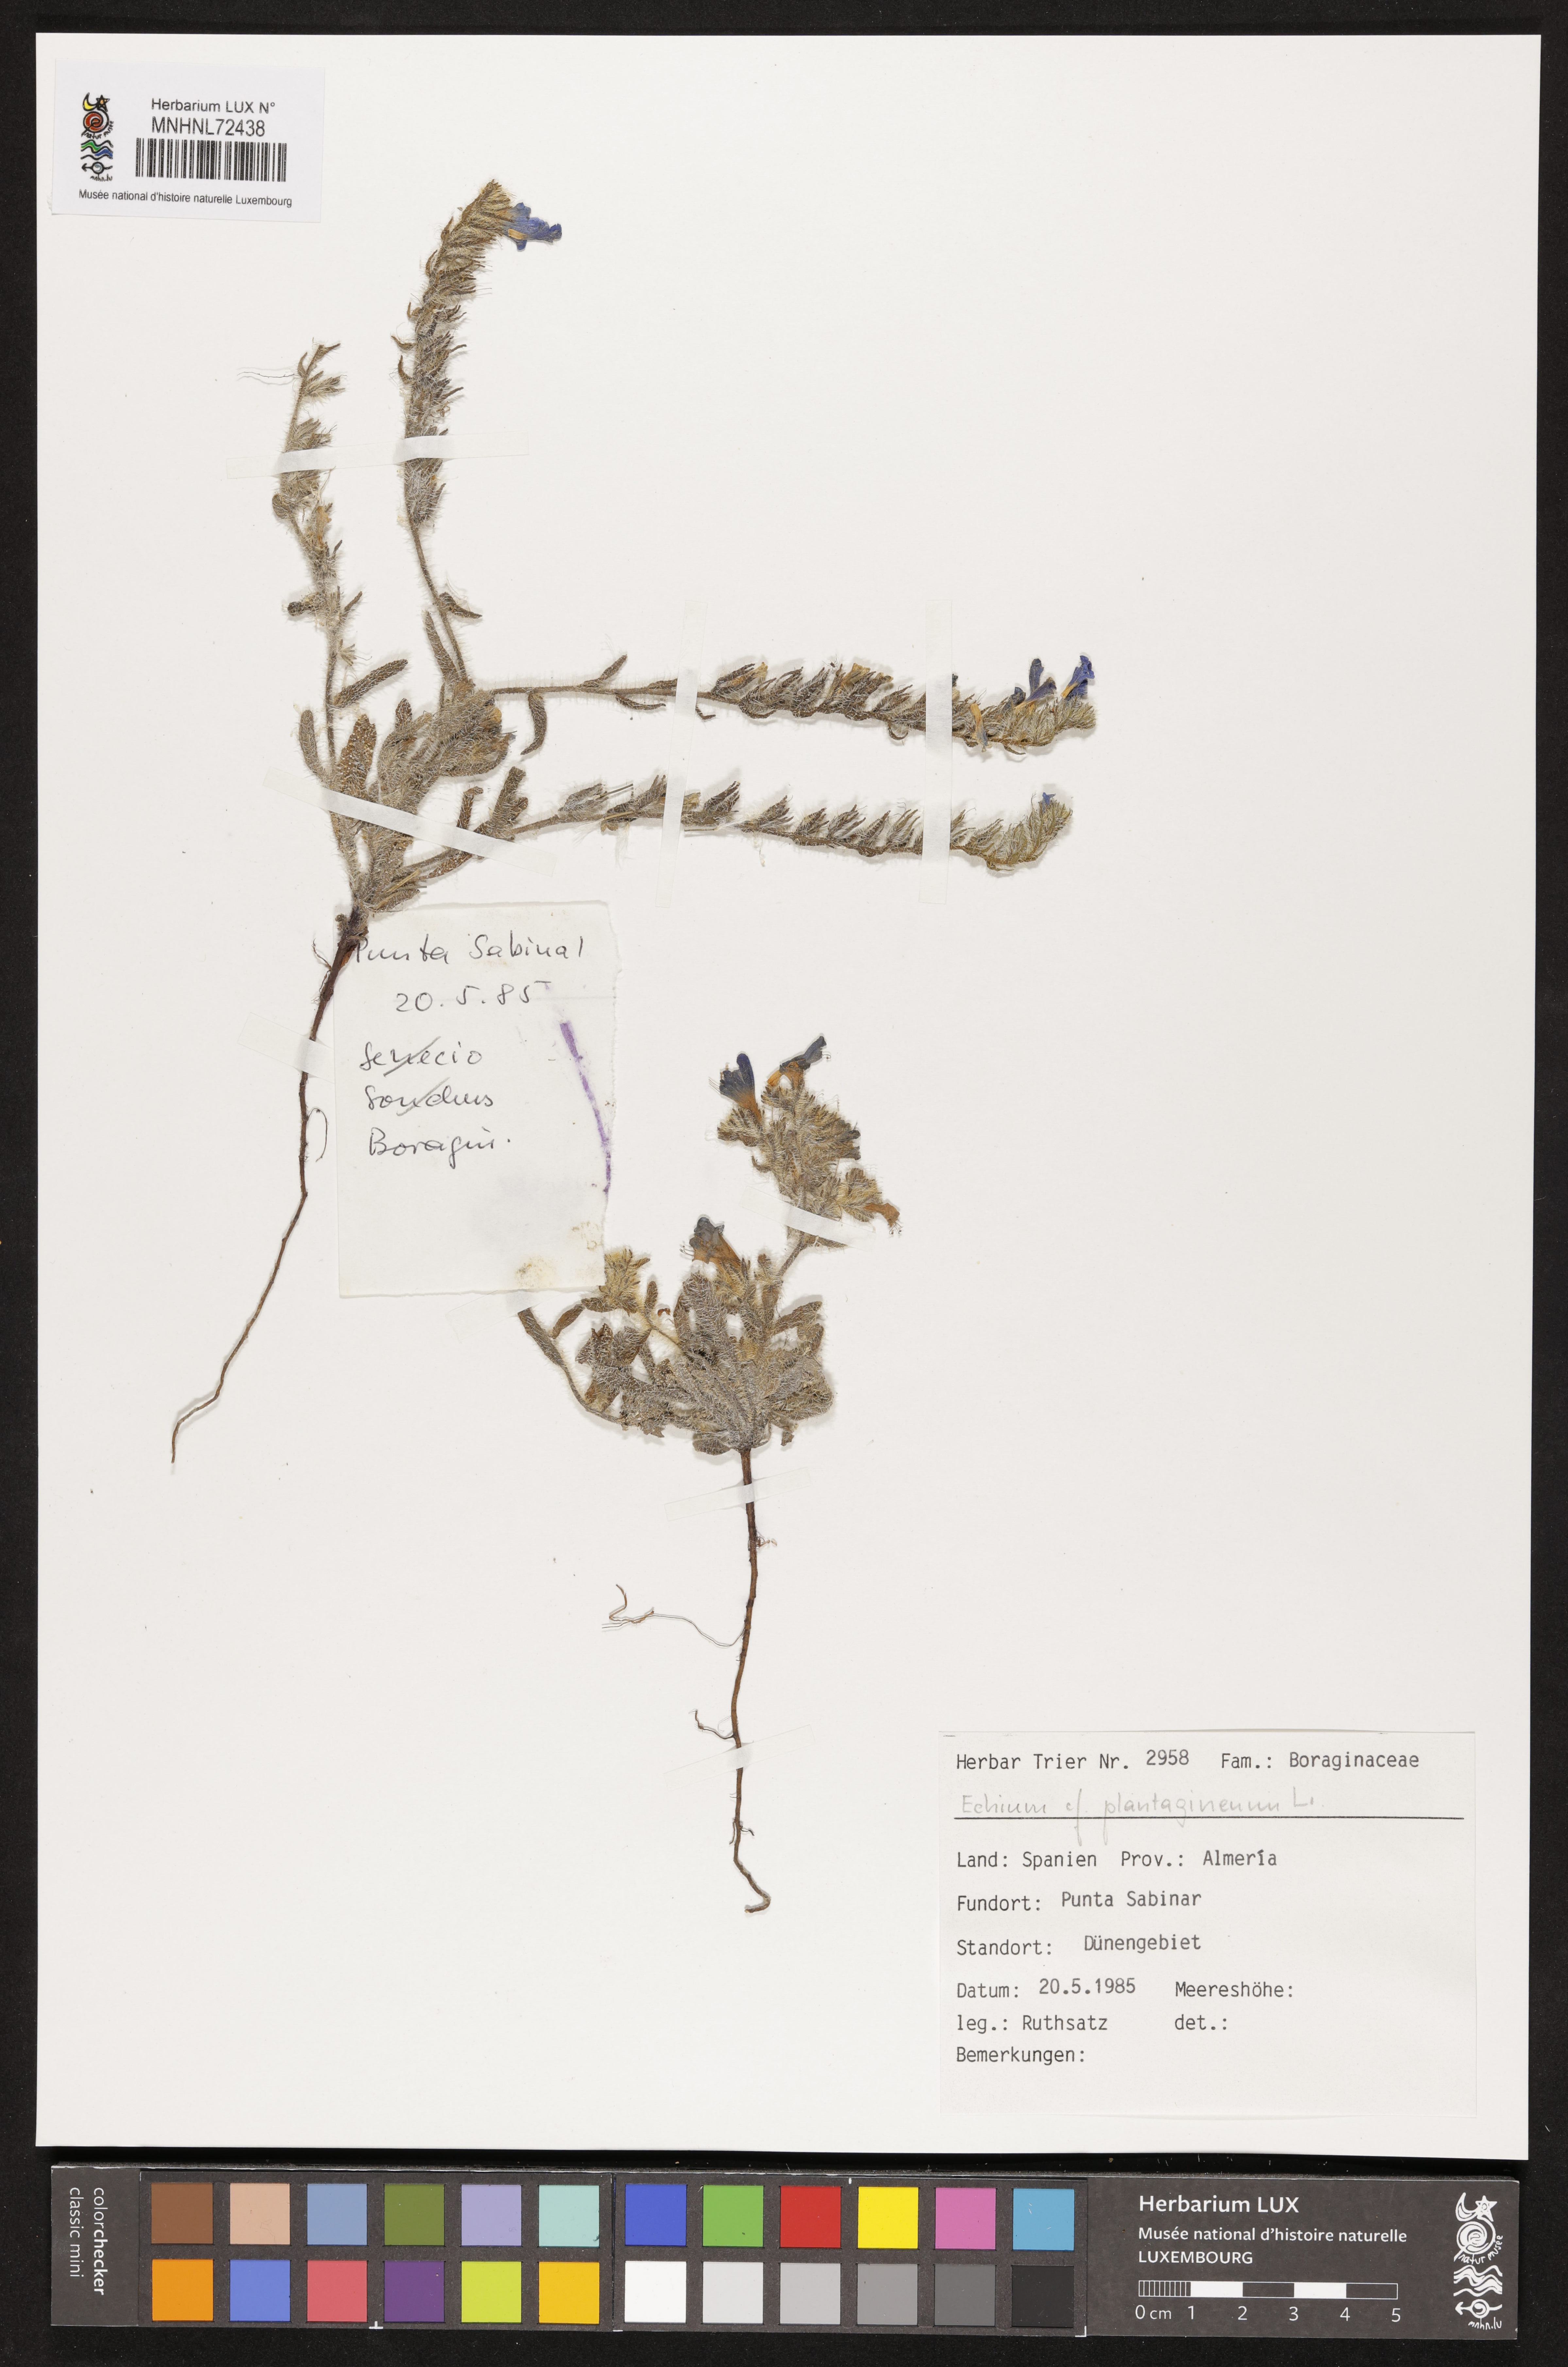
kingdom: Plantae
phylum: Tracheophyta
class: Magnoliopsida
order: Boraginales
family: Boraginaceae
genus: Echium
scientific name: Echium plantagineum
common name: Purple viper's-bugloss
